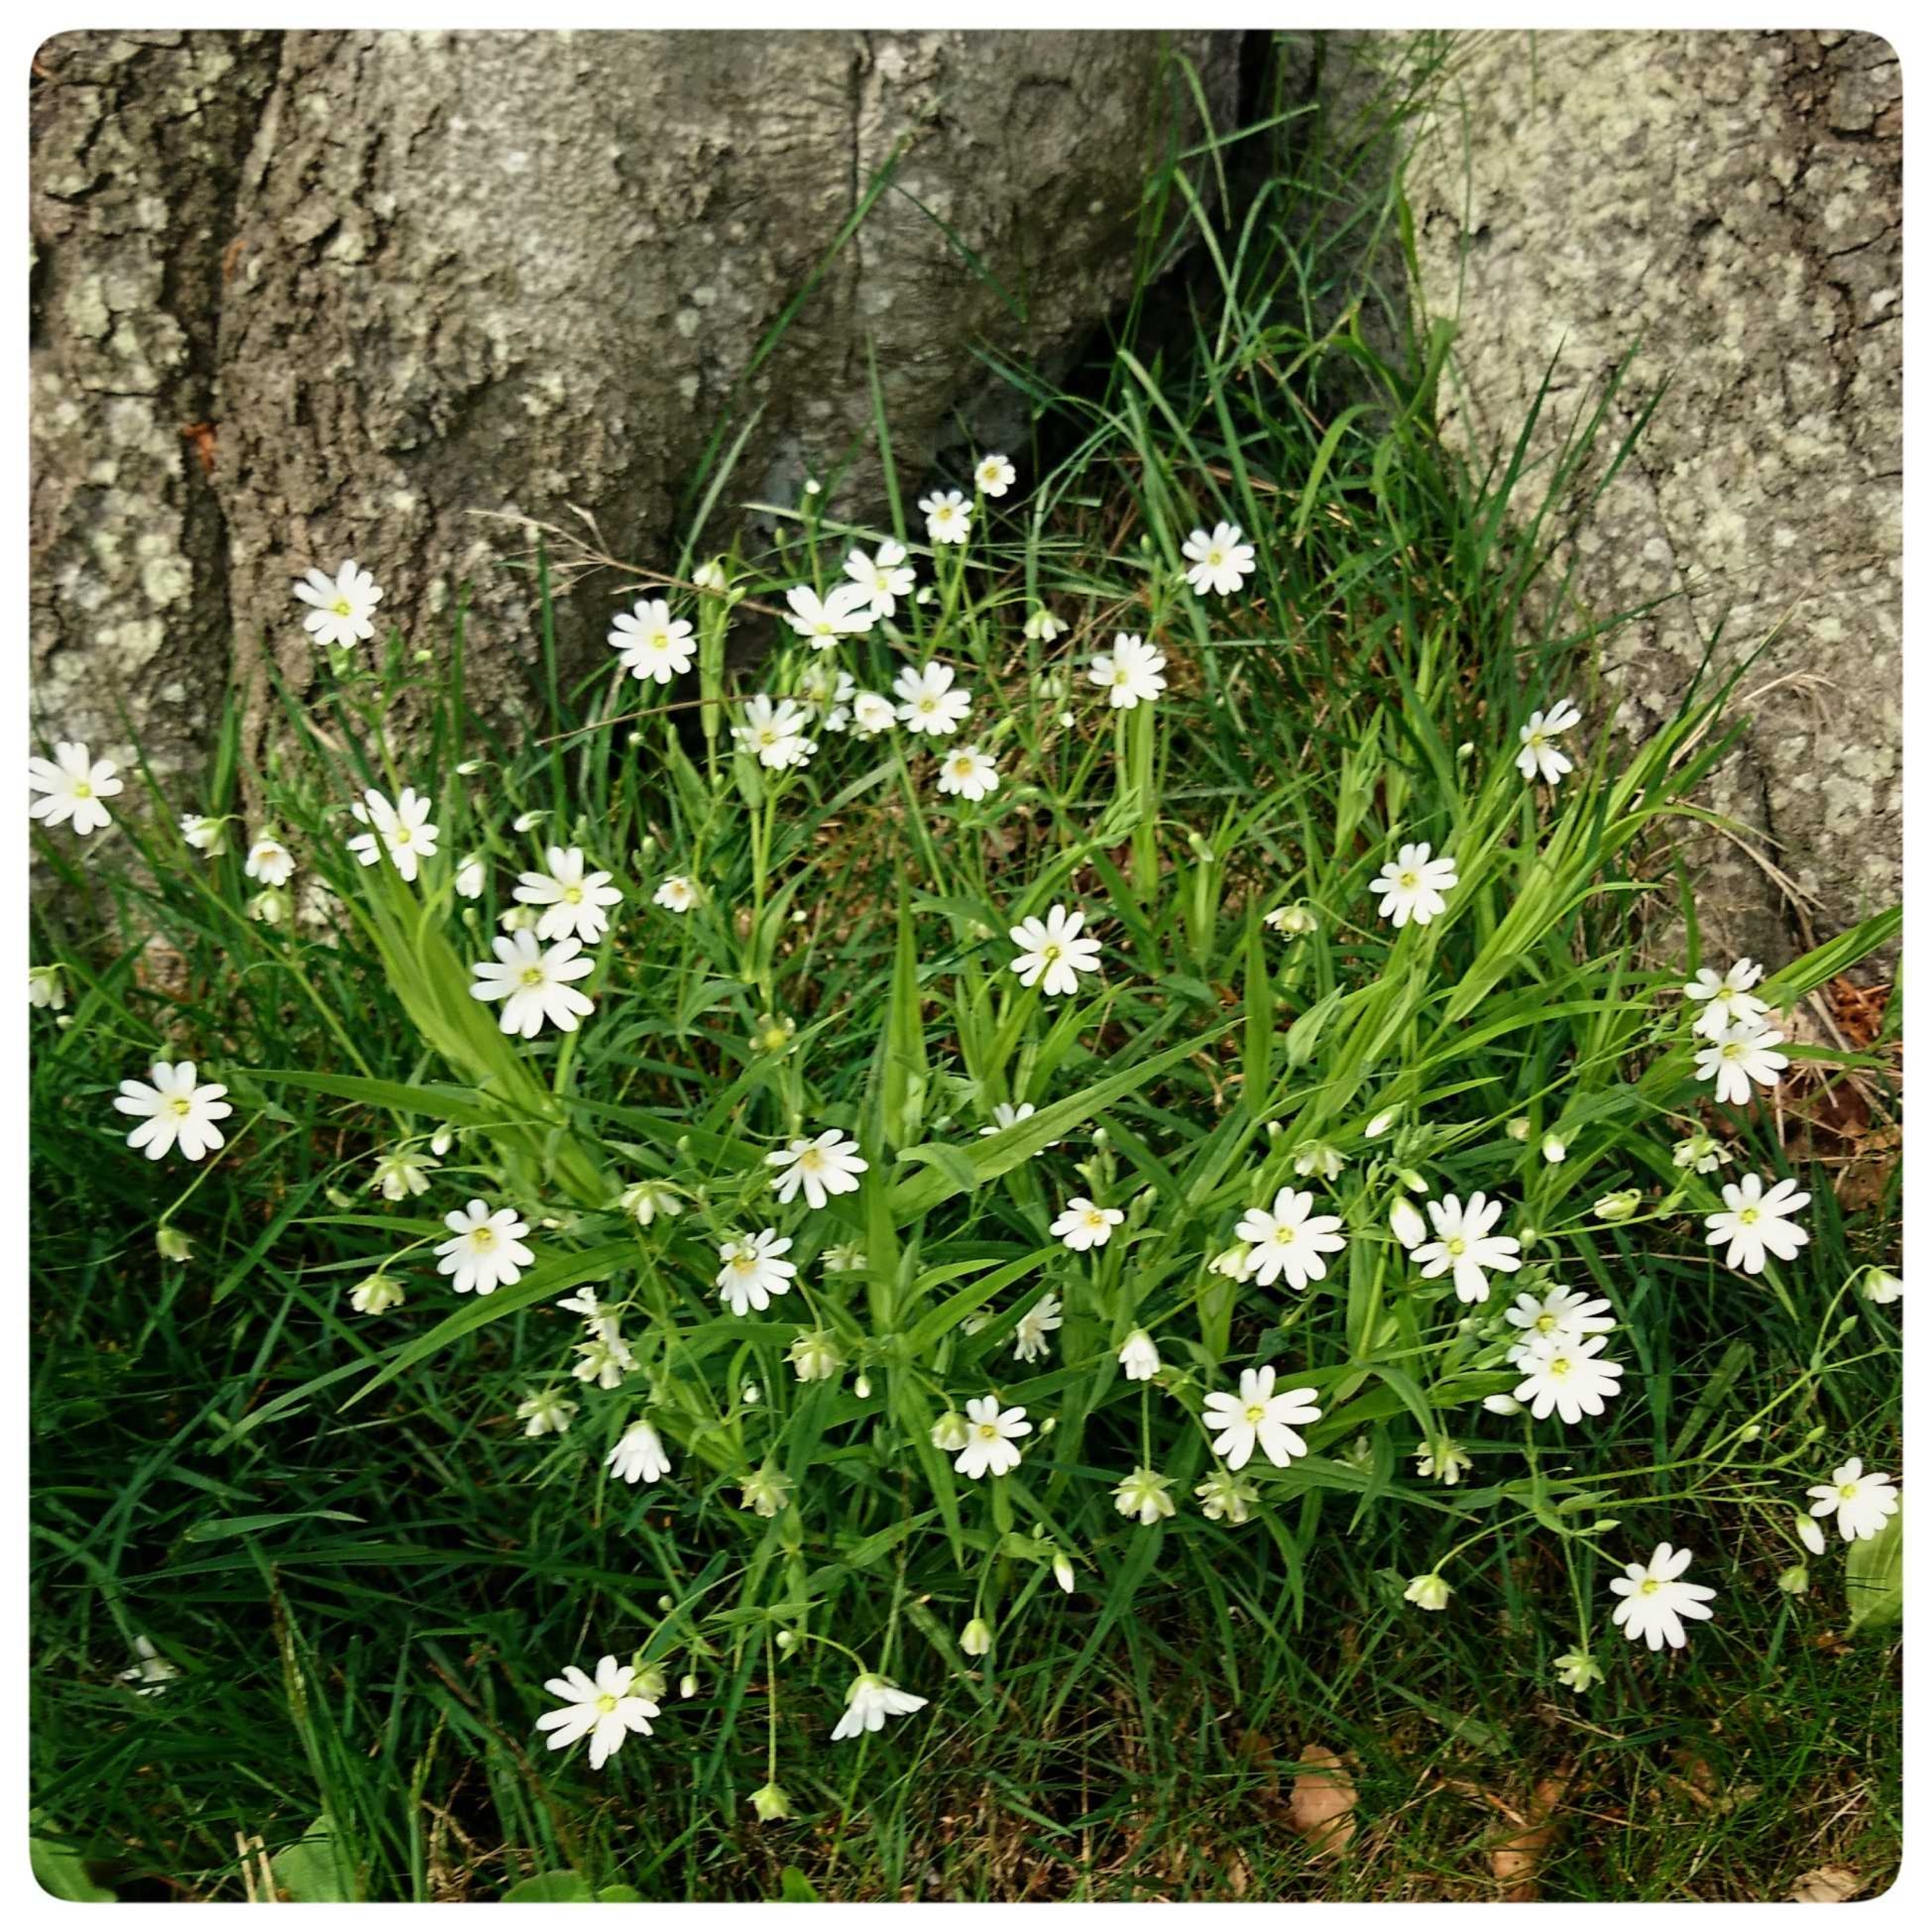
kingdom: Plantae
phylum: Tracheophyta
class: Magnoliopsida
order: Caryophyllales
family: Caryophyllaceae
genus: Rabelera
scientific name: Rabelera holostea
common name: Stor fladstjerne
